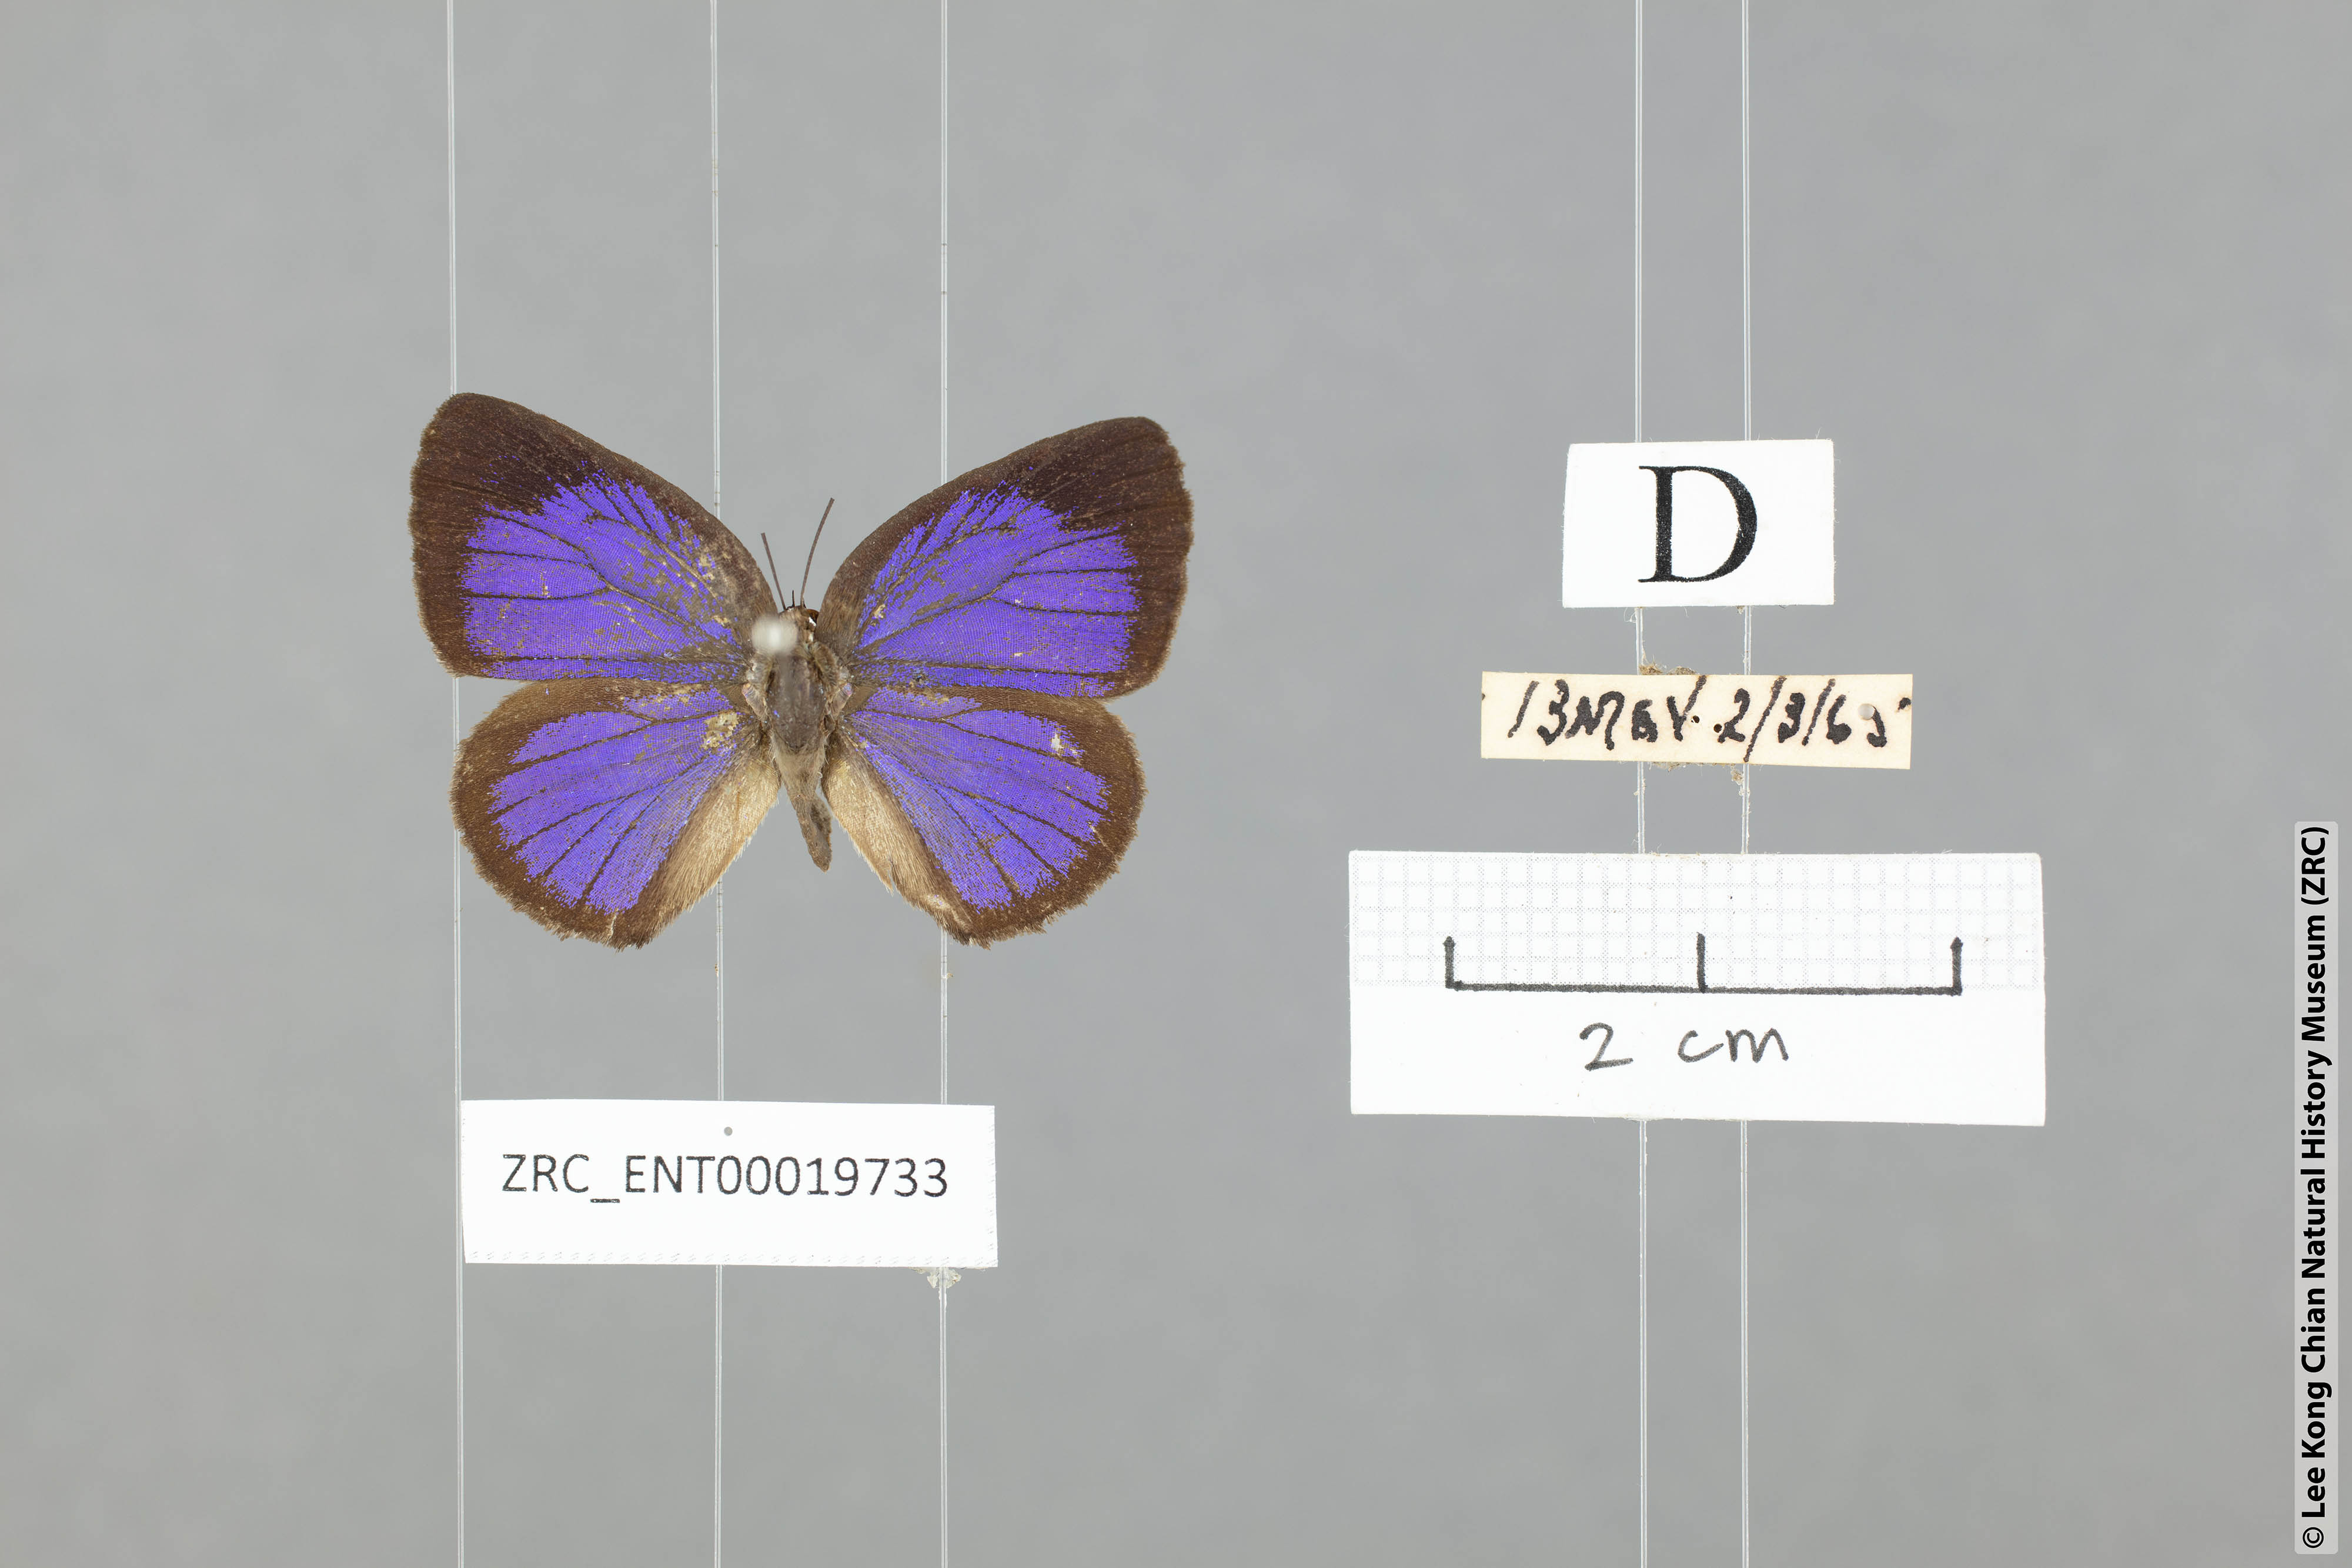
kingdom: Animalia
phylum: Arthropoda
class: Insecta
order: Lepidoptera
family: Lycaenidae
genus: Arhopala
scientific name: Arhopala myrzalina
